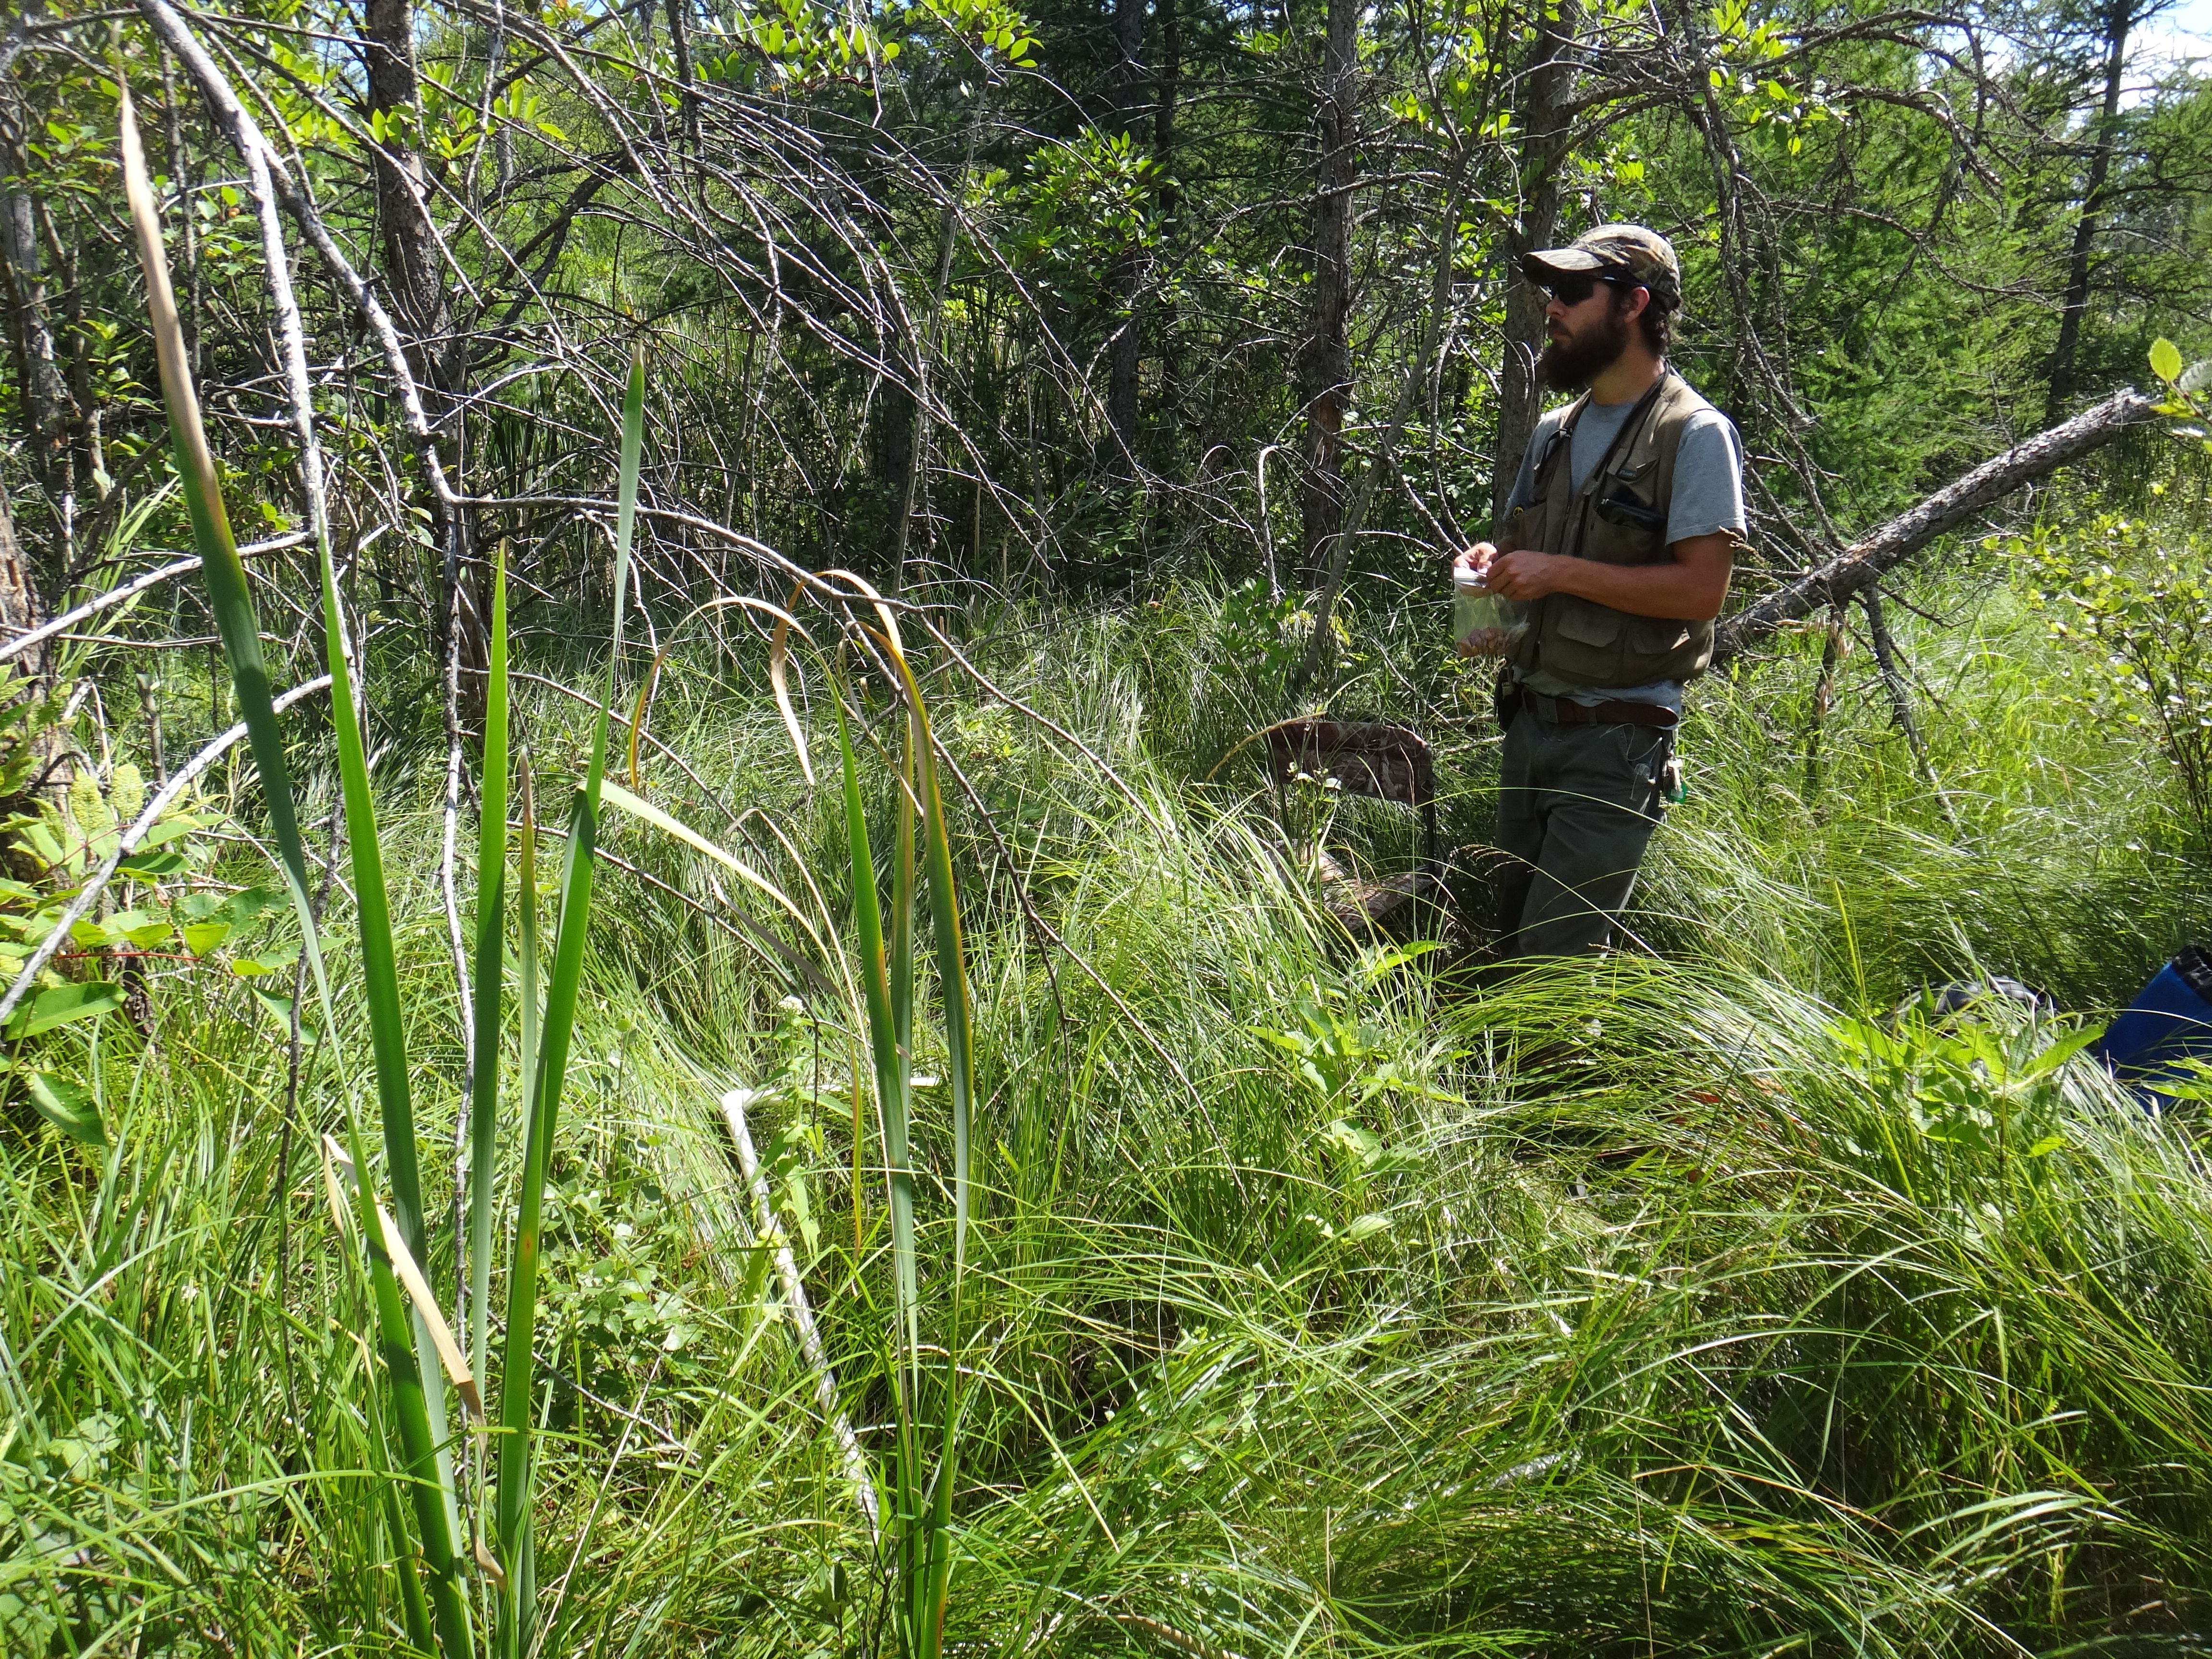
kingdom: Plantae
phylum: Tracheophyta
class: Magnoliopsida
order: Asterales
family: Asteraceae
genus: Eutrochium
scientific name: Eutrochium maculatum
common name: Spotted joe pye weed
